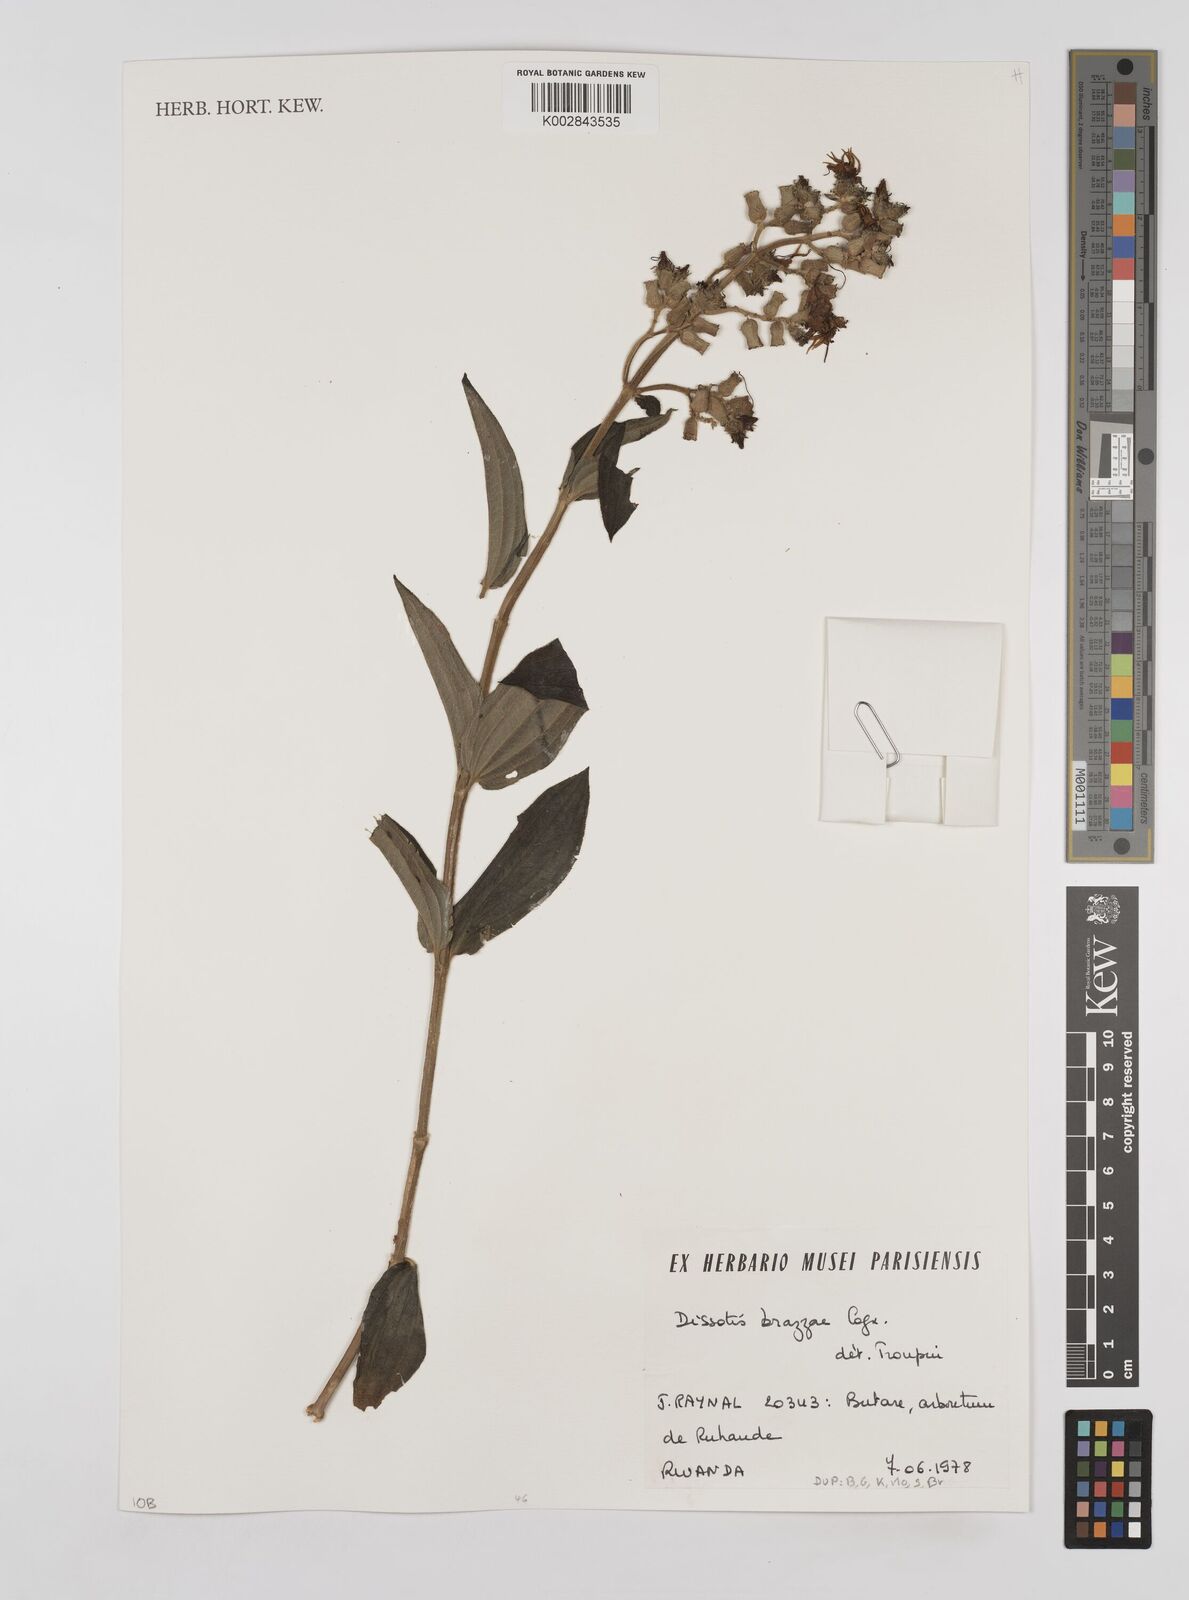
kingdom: Plantae
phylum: Tracheophyta
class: Magnoliopsida
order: Myrtales
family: Melastomataceae
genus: Dupineta
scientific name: Dupineta brazzae
